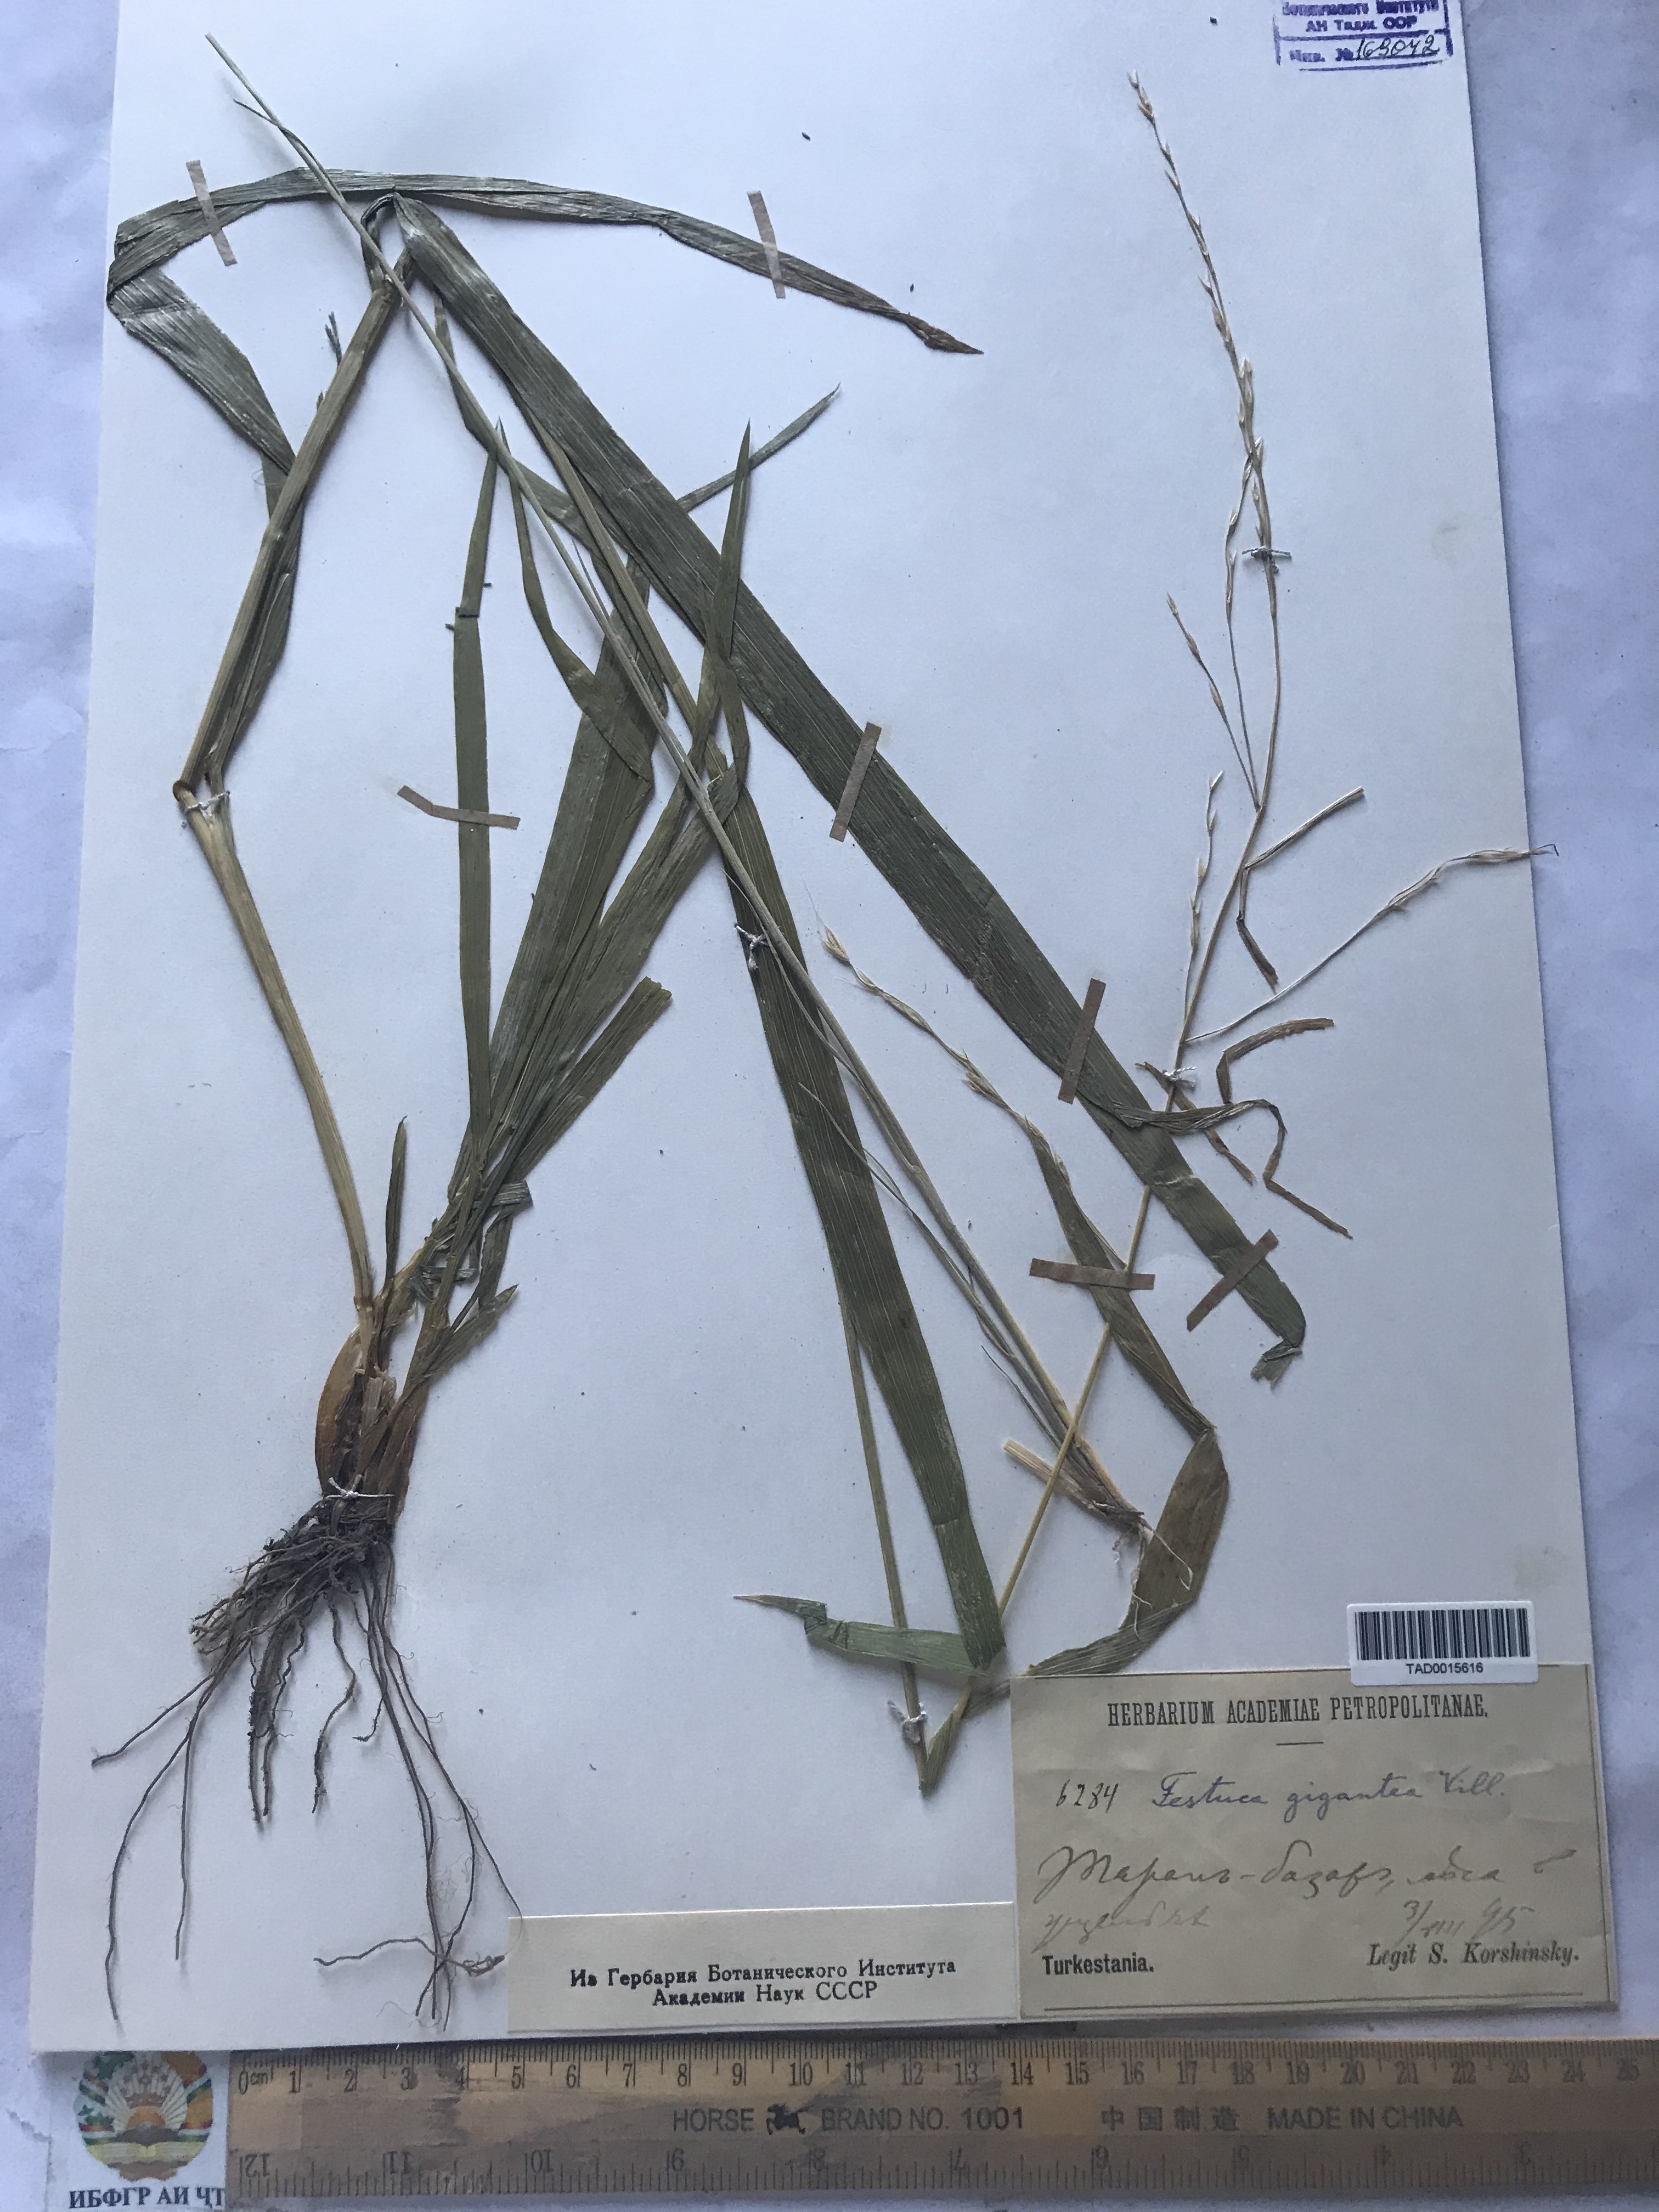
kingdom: Plantae
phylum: Tracheophyta
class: Liliopsida
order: Poales
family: Poaceae
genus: Lolium
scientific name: Lolium giganteum
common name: Giant fescue
